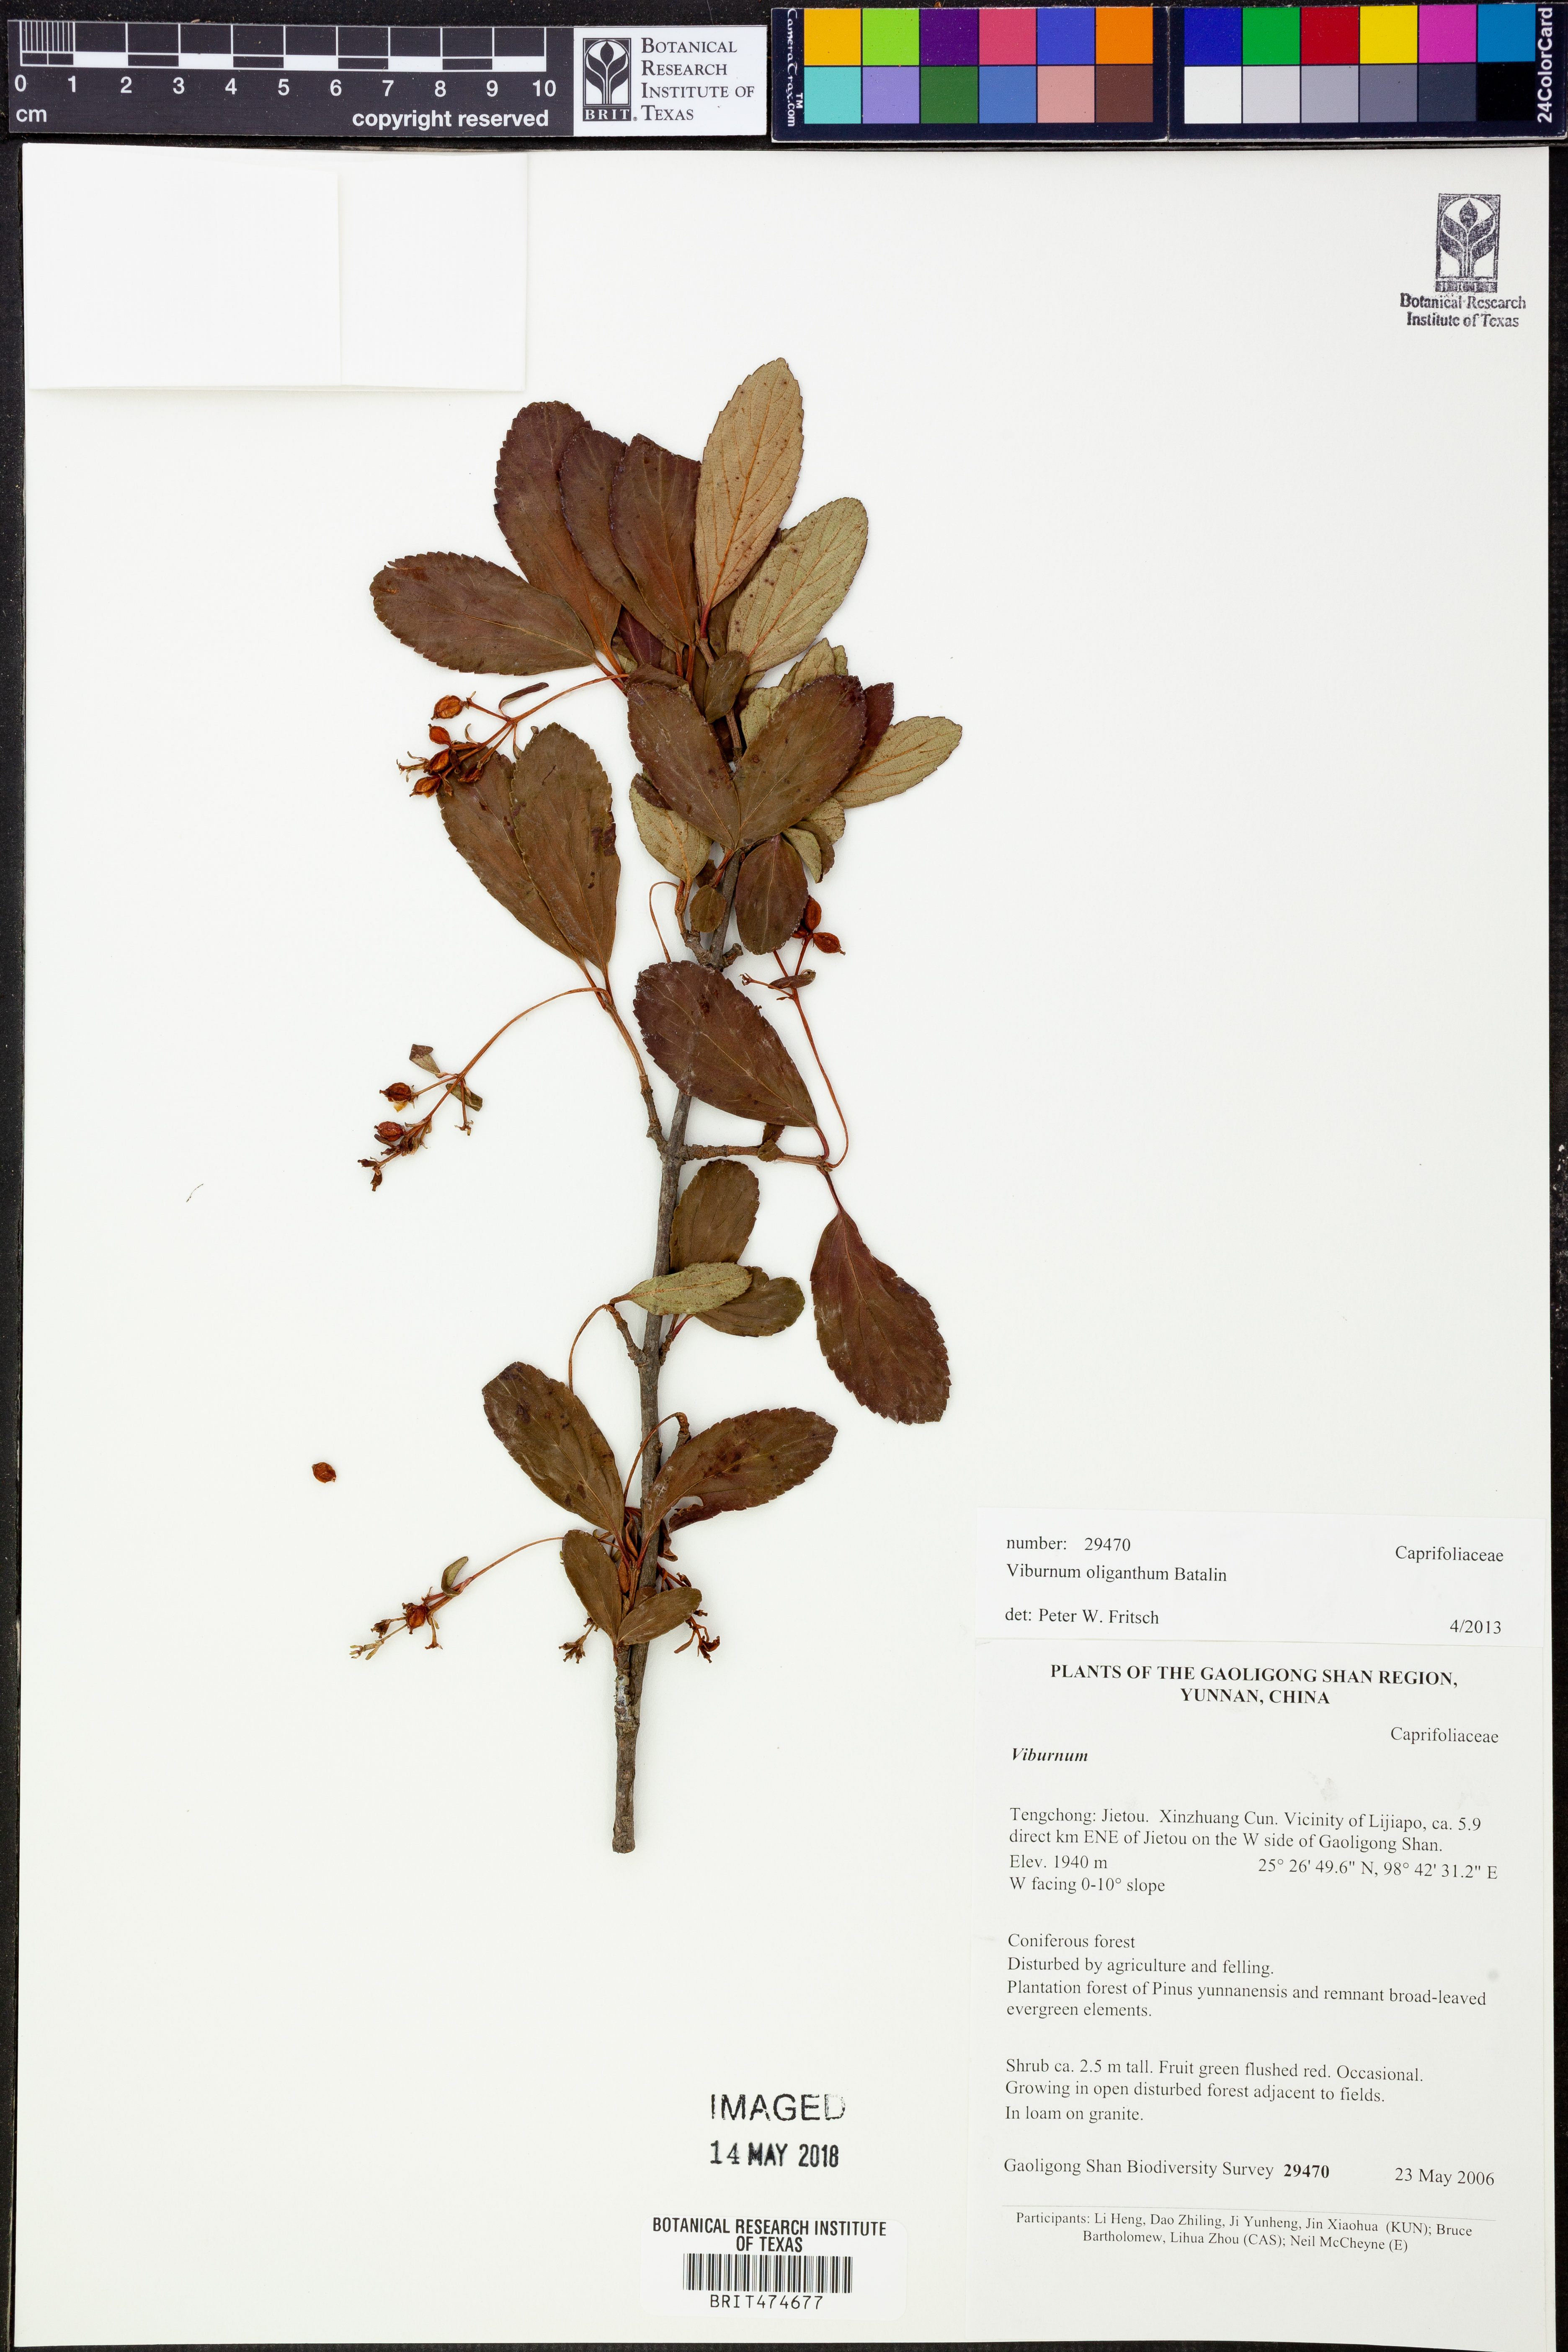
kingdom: Plantae
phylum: Tracheophyta
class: Magnoliopsida
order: Dipsacales
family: Viburnaceae
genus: Viburnum
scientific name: Viburnum oliganthum
